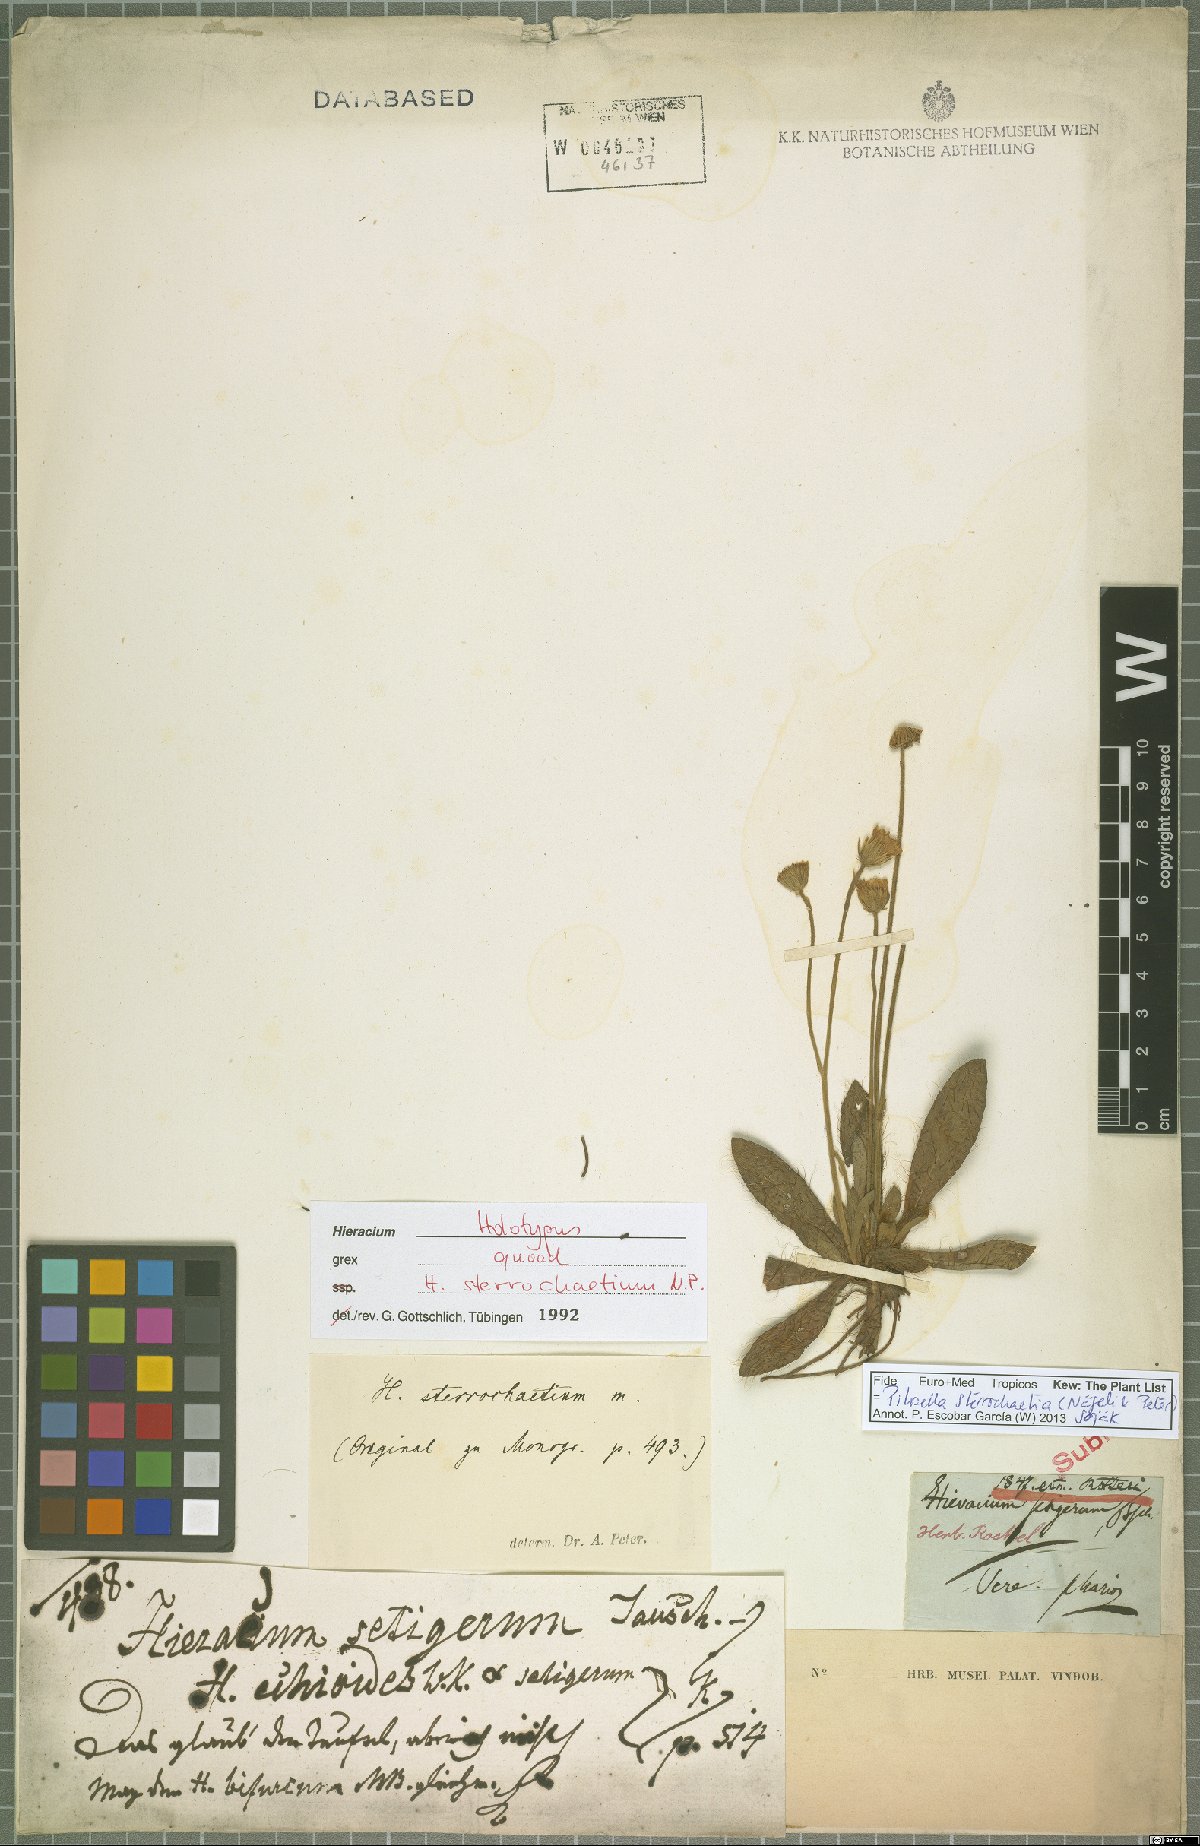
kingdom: Plantae
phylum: Tracheophyta
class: Magnoliopsida
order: Asterales
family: Asteraceae
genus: Pilosella
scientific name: Pilosella sterrochaetia
